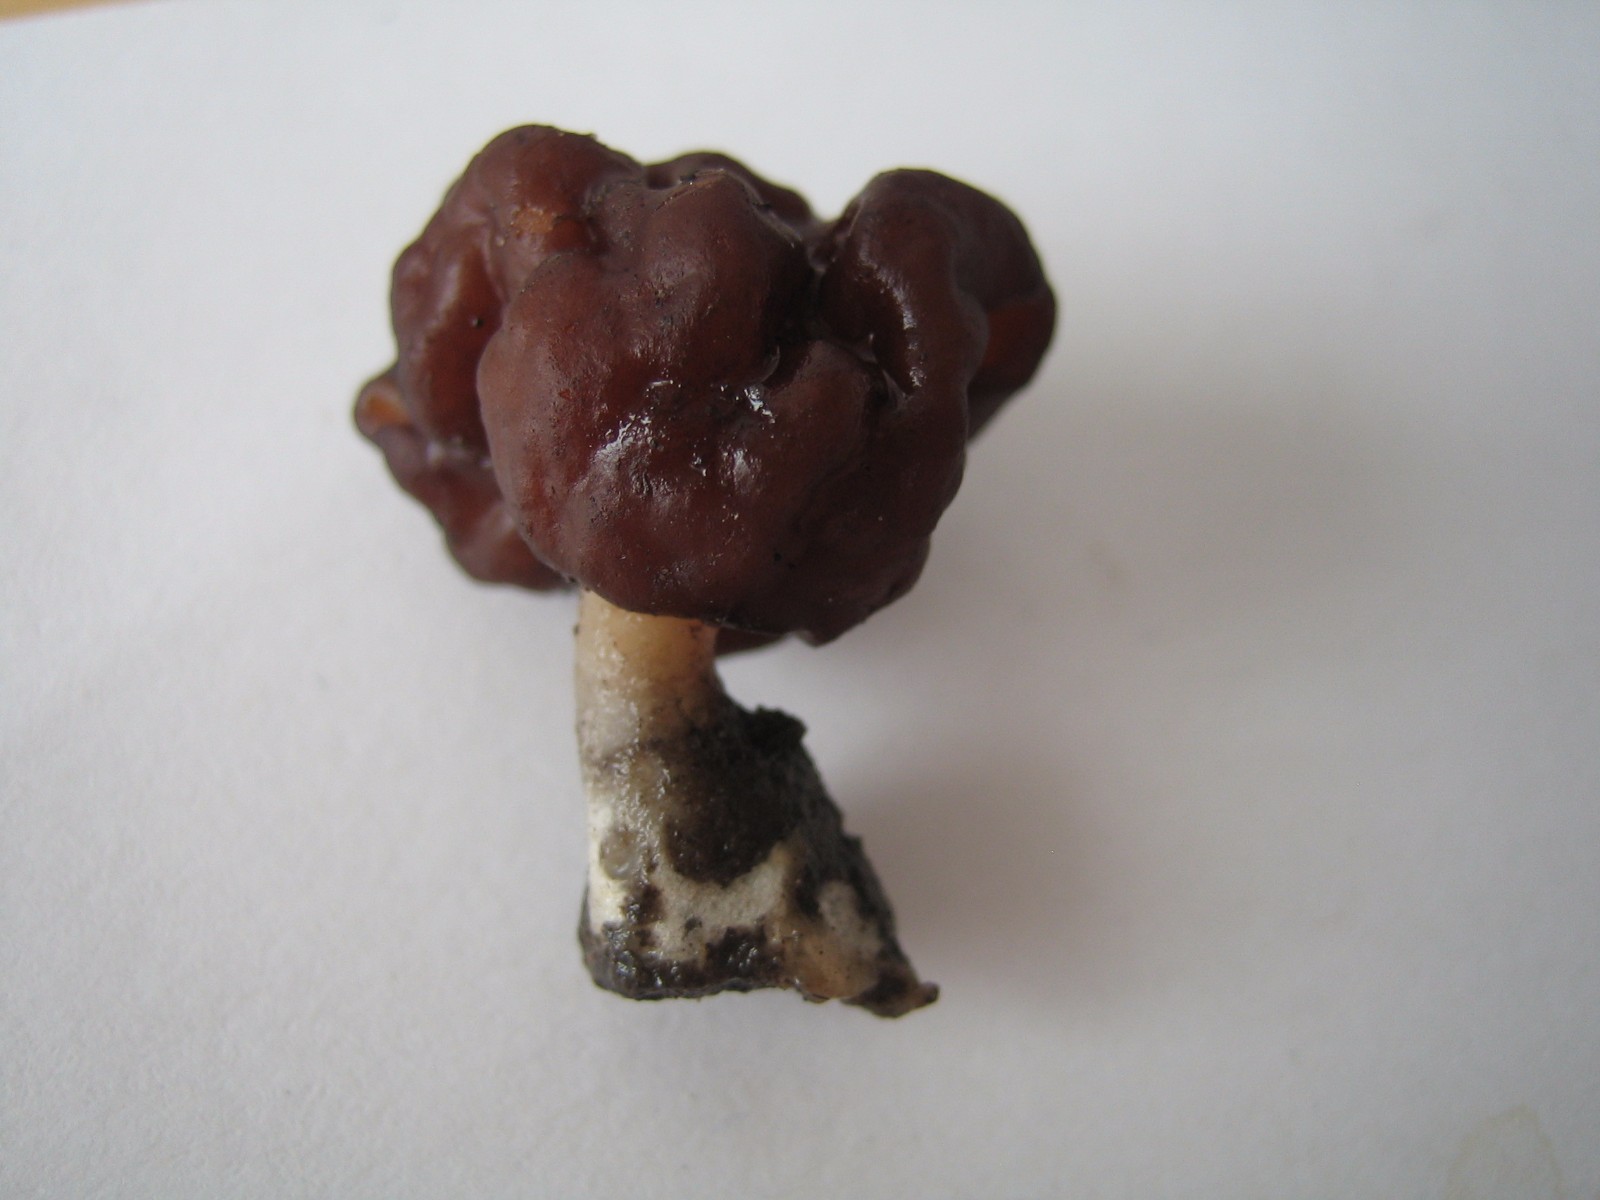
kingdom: Fungi
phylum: Ascomycota
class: Pezizomycetes
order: Pezizales
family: Discinaceae
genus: Gyromitra
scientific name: Gyromitra esculenta
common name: ægte stenmorkel
